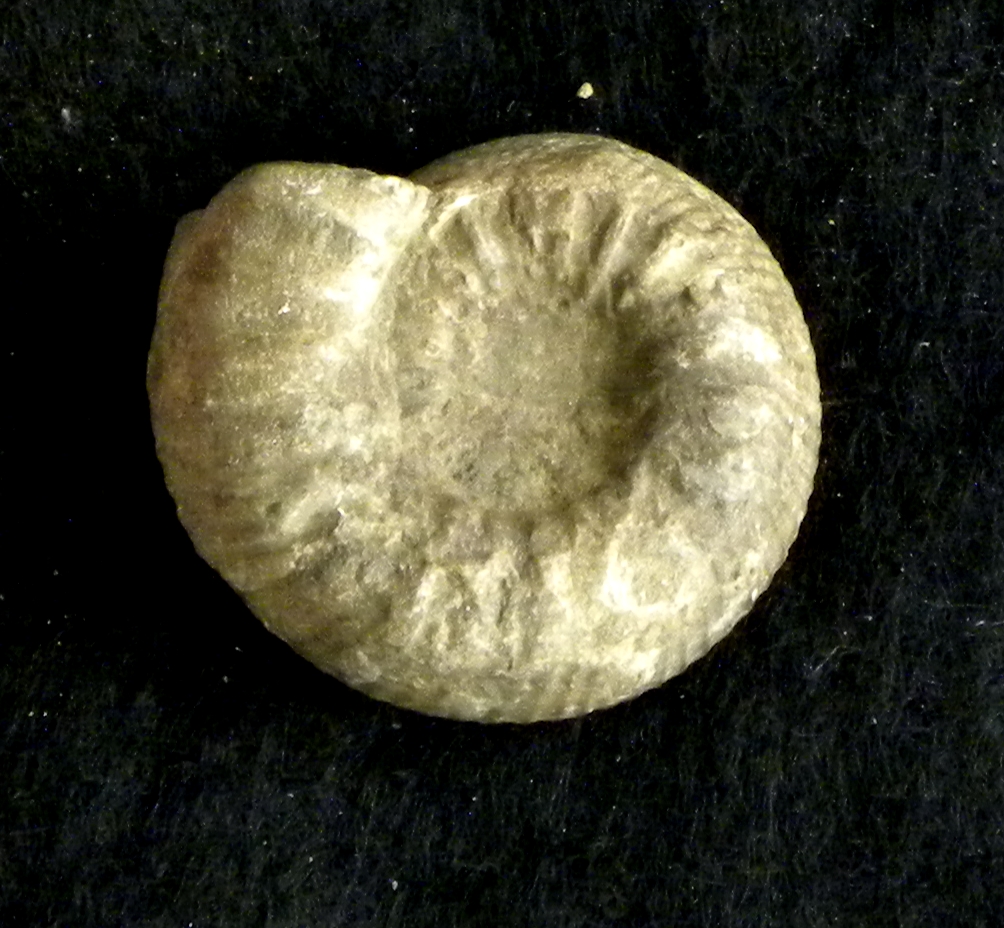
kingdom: Animalia
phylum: Mollusca
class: Cephalopoda
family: Coeloceratidae
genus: Coeloceras
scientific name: Coeloceras
